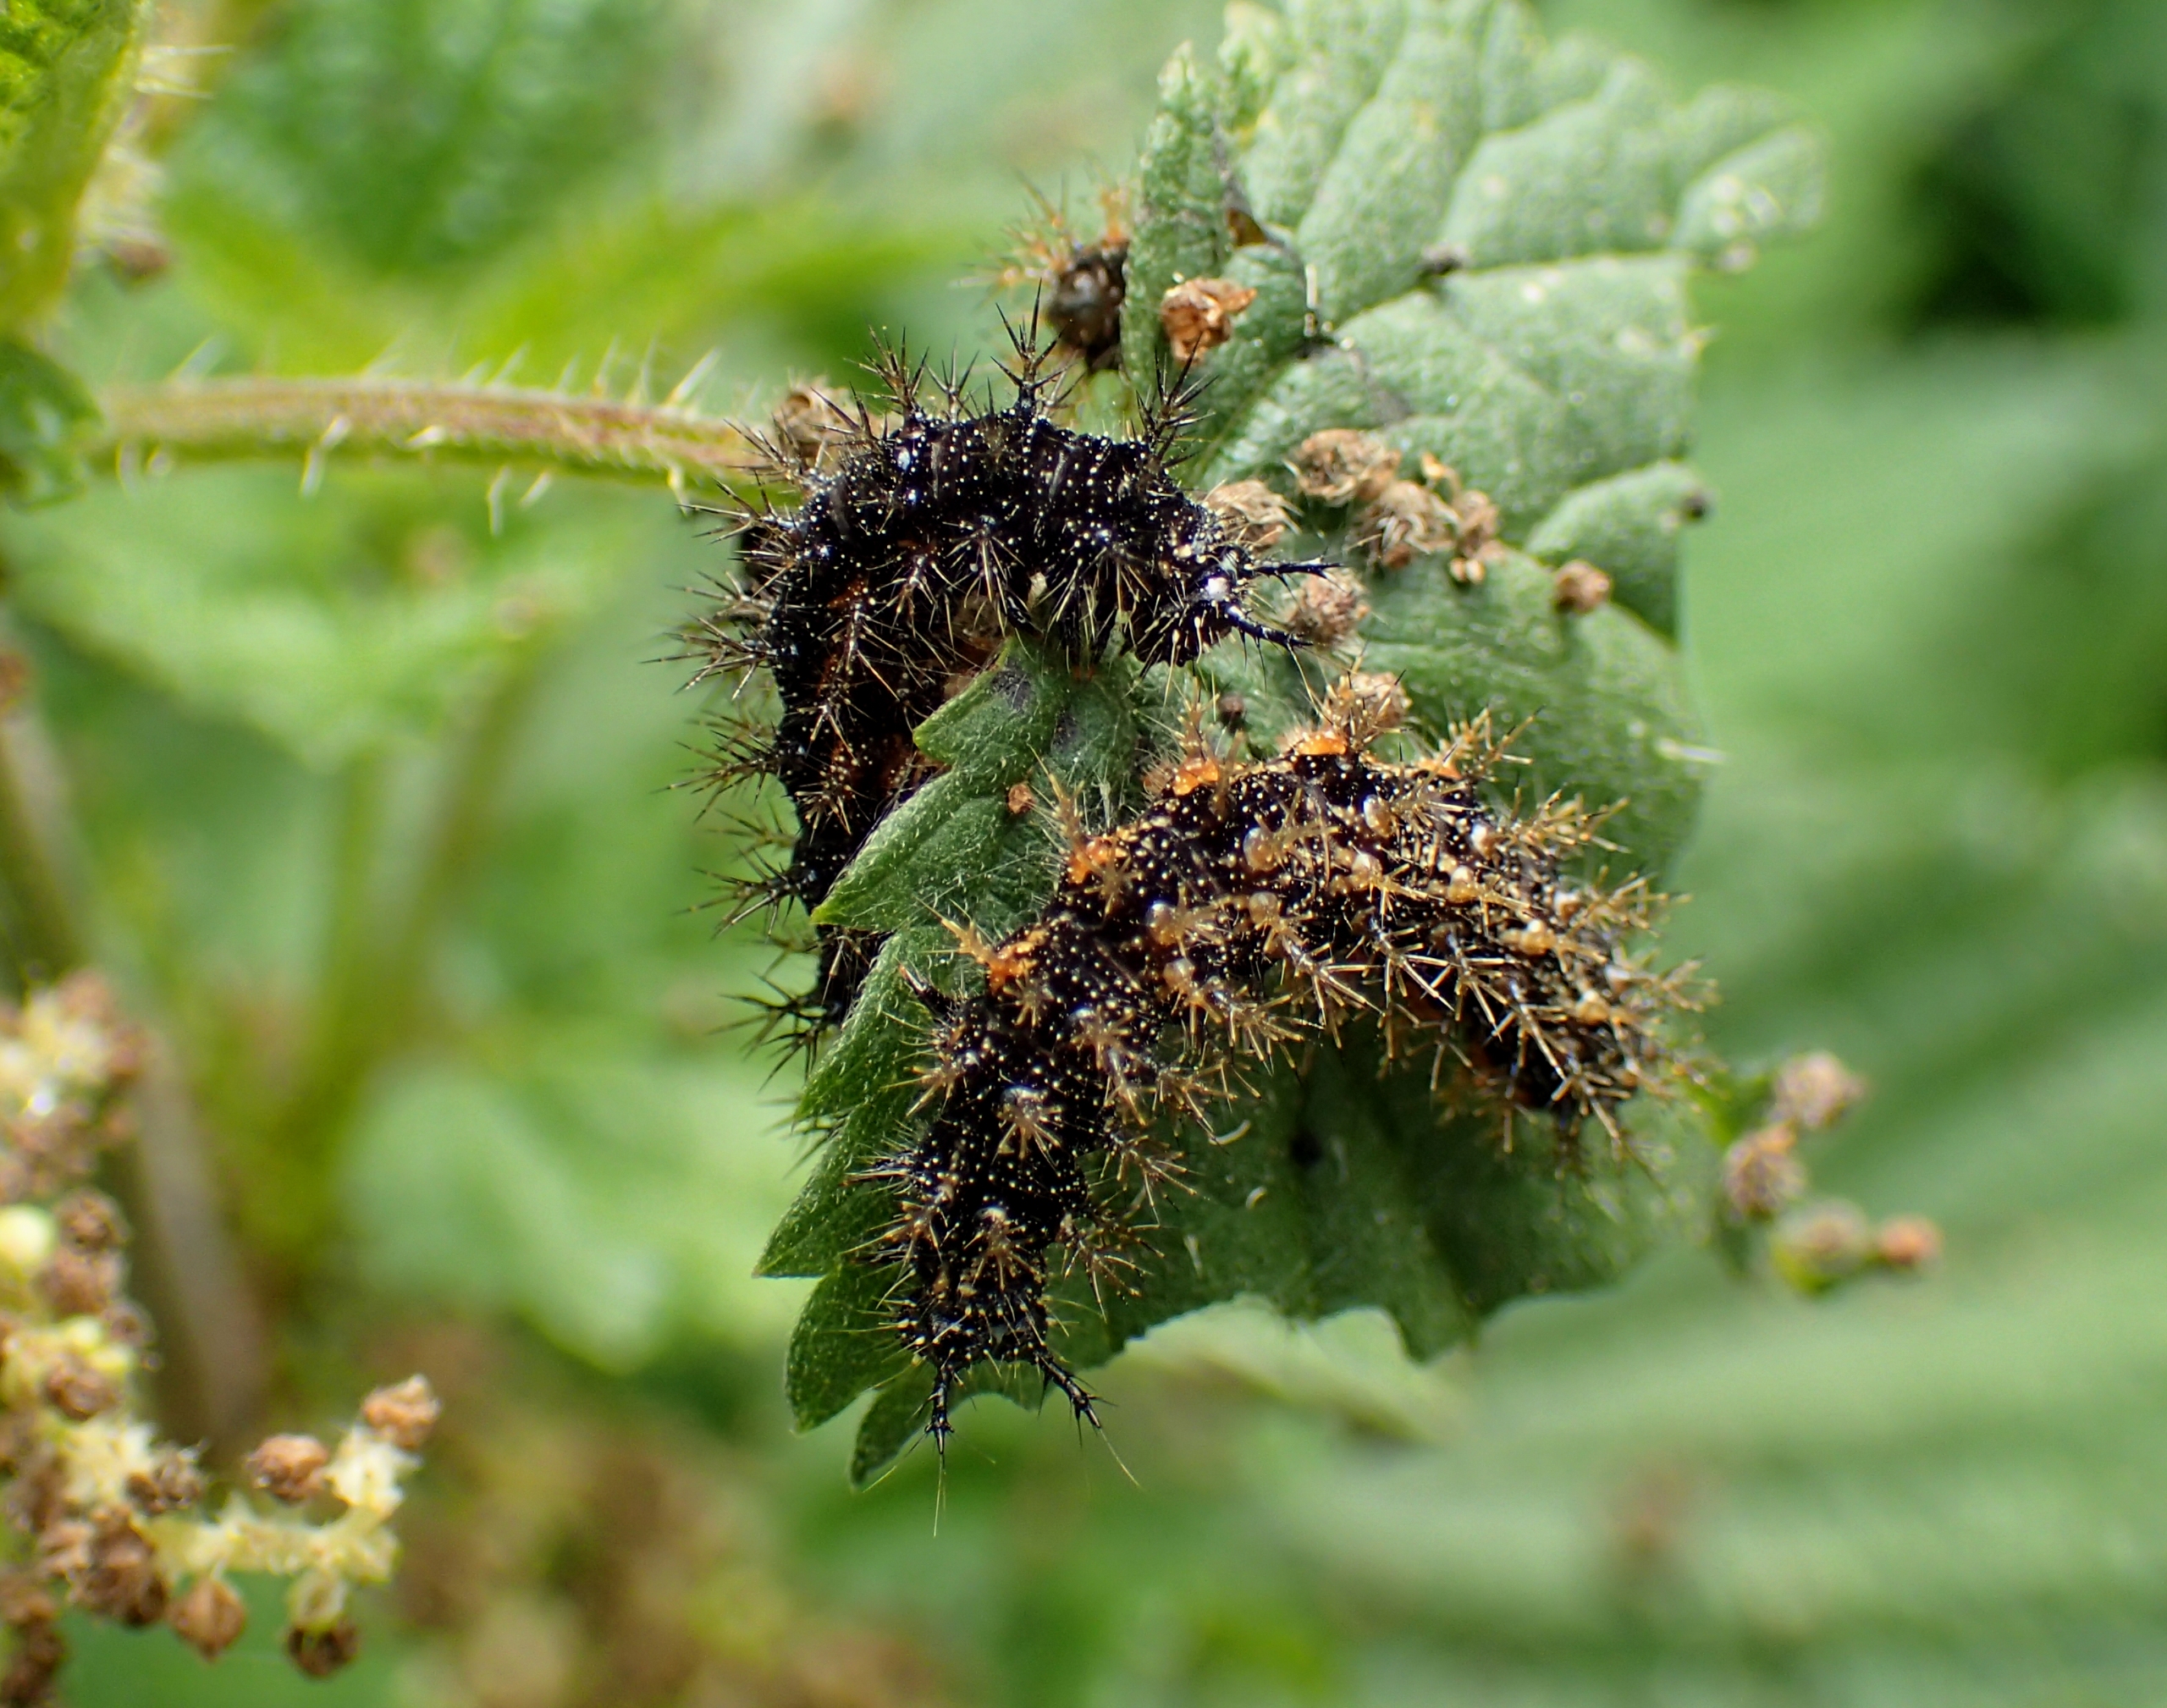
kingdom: Animalia
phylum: Arthropoda
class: Insecta
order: Lepidoptera
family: Nymphalidae
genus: Araschnia
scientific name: Araschnia levana
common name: Nældesommerfugl
